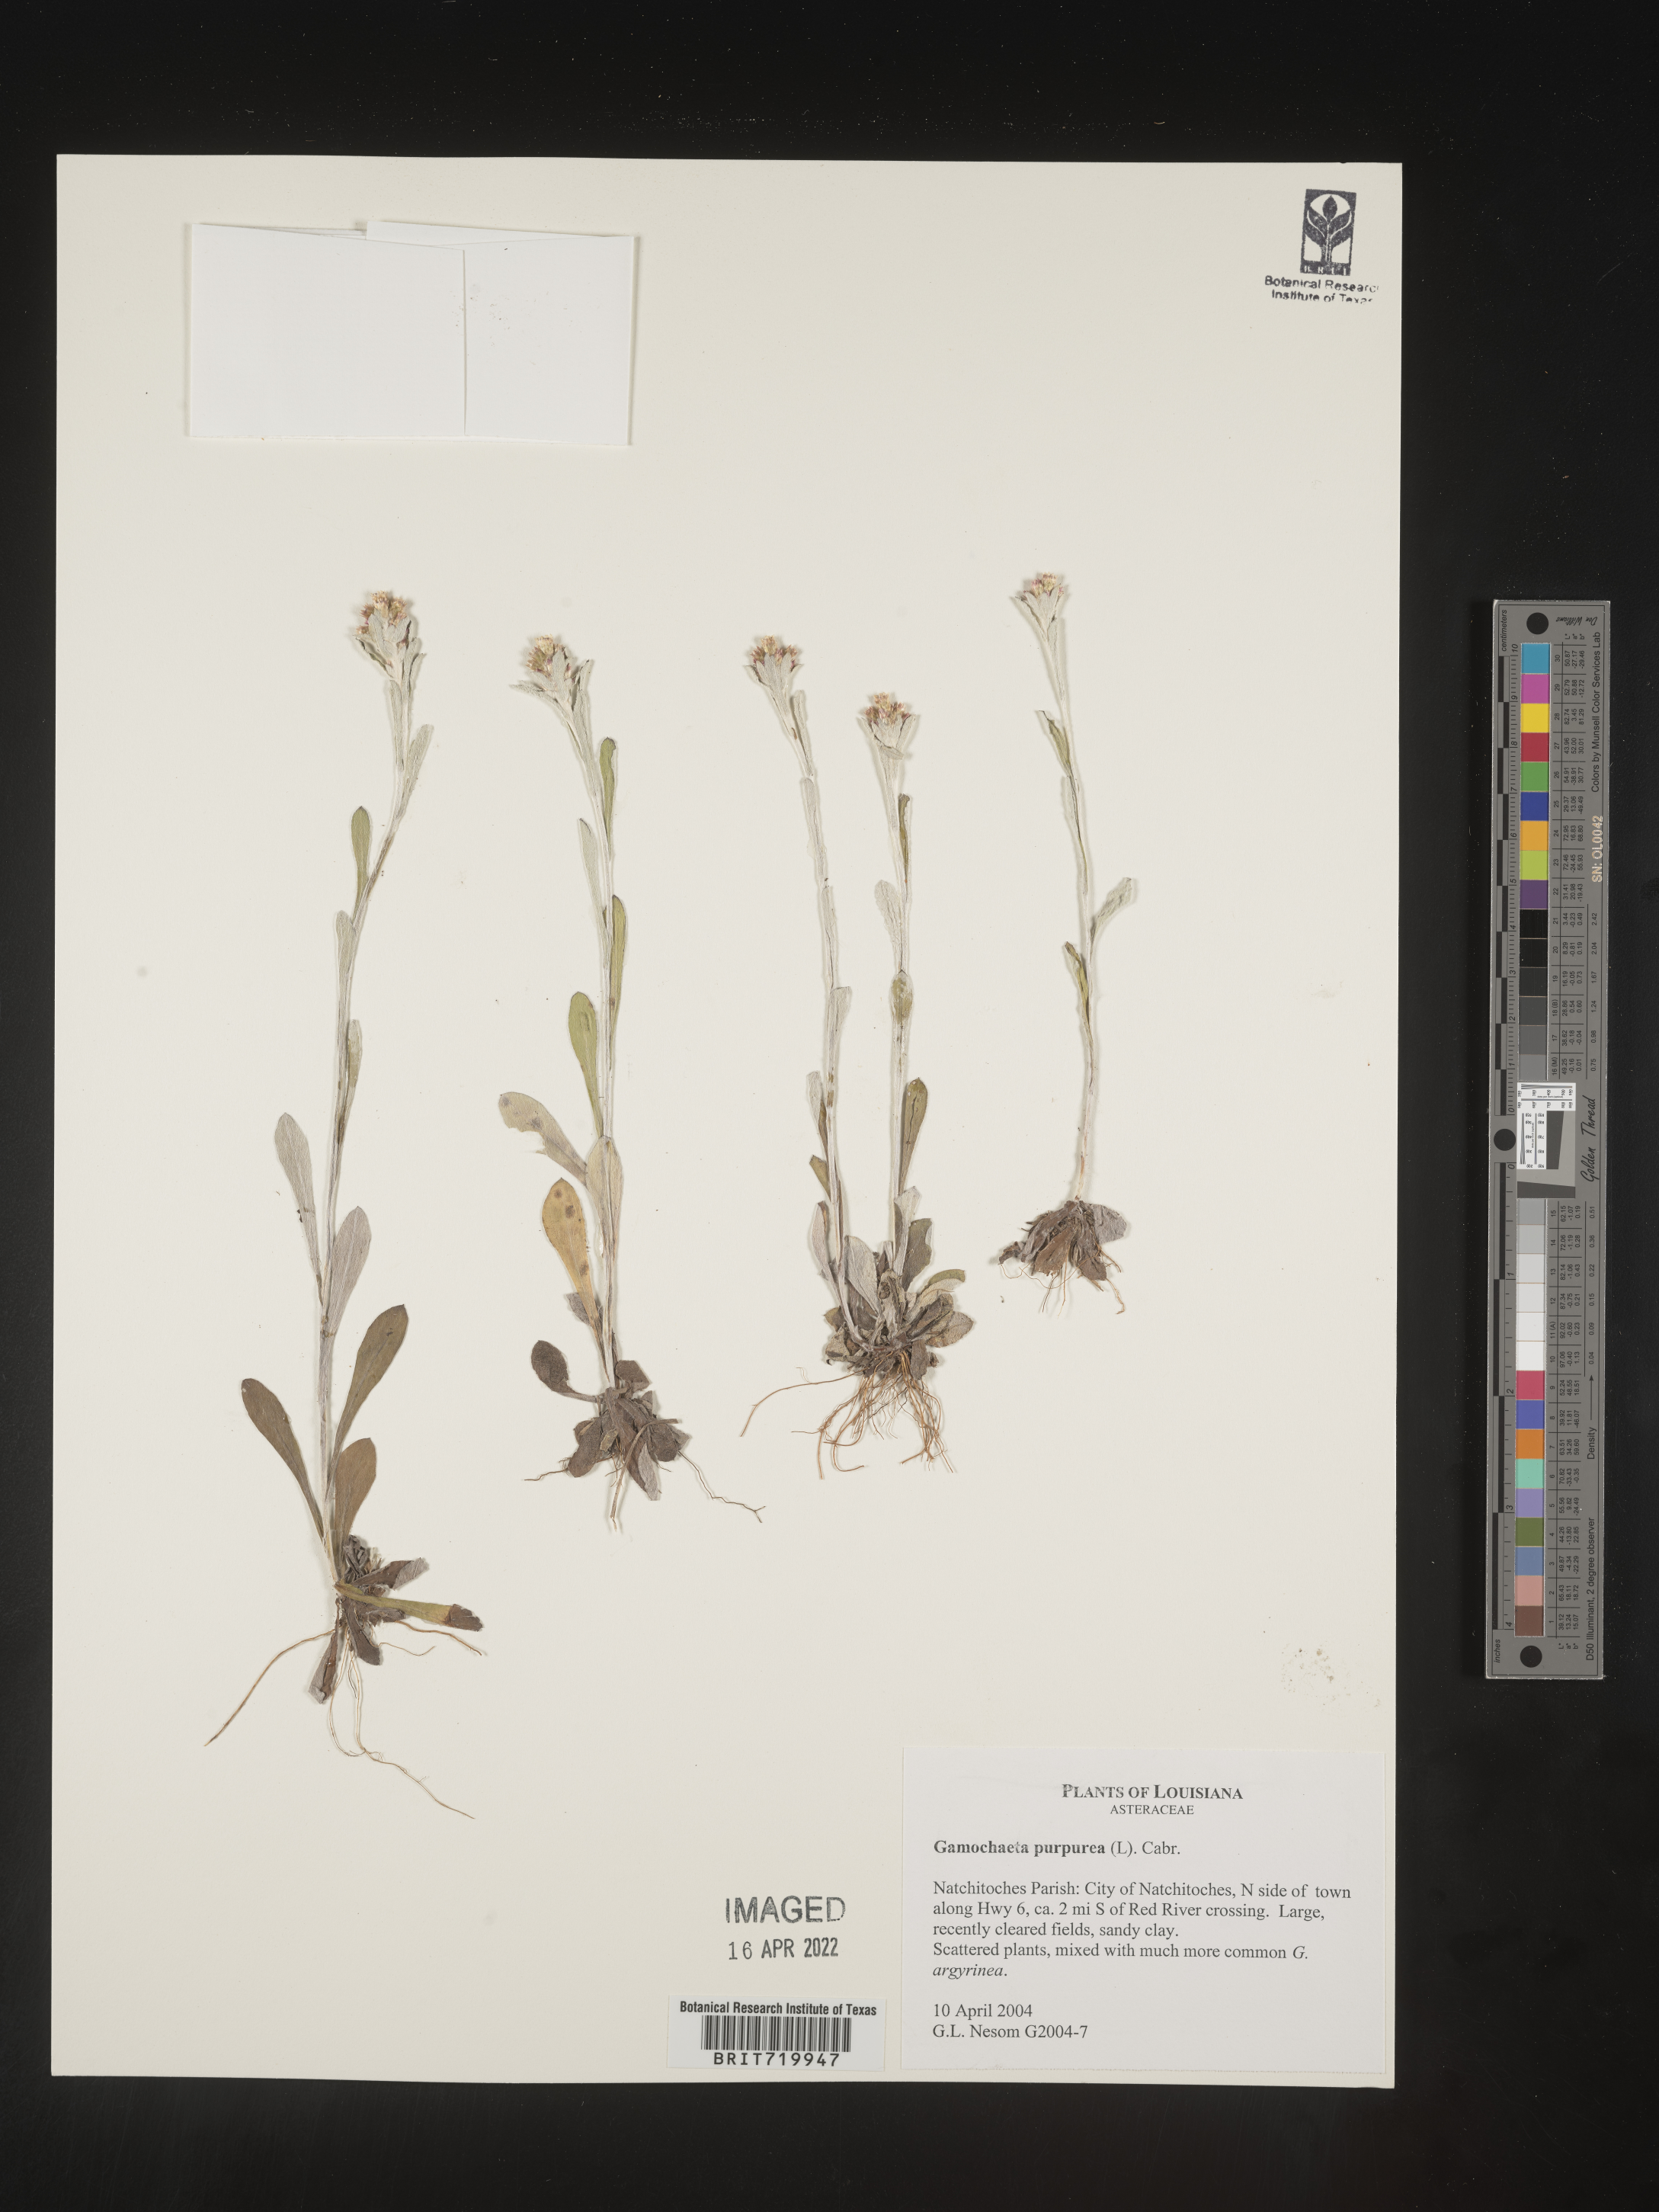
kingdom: Plantae
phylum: Tracheophyta
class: Magnoliopsida
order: Asterales
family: Asteraceae
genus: Gamochaeta
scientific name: Gamochaeta purpurea
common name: Purple cudweed
